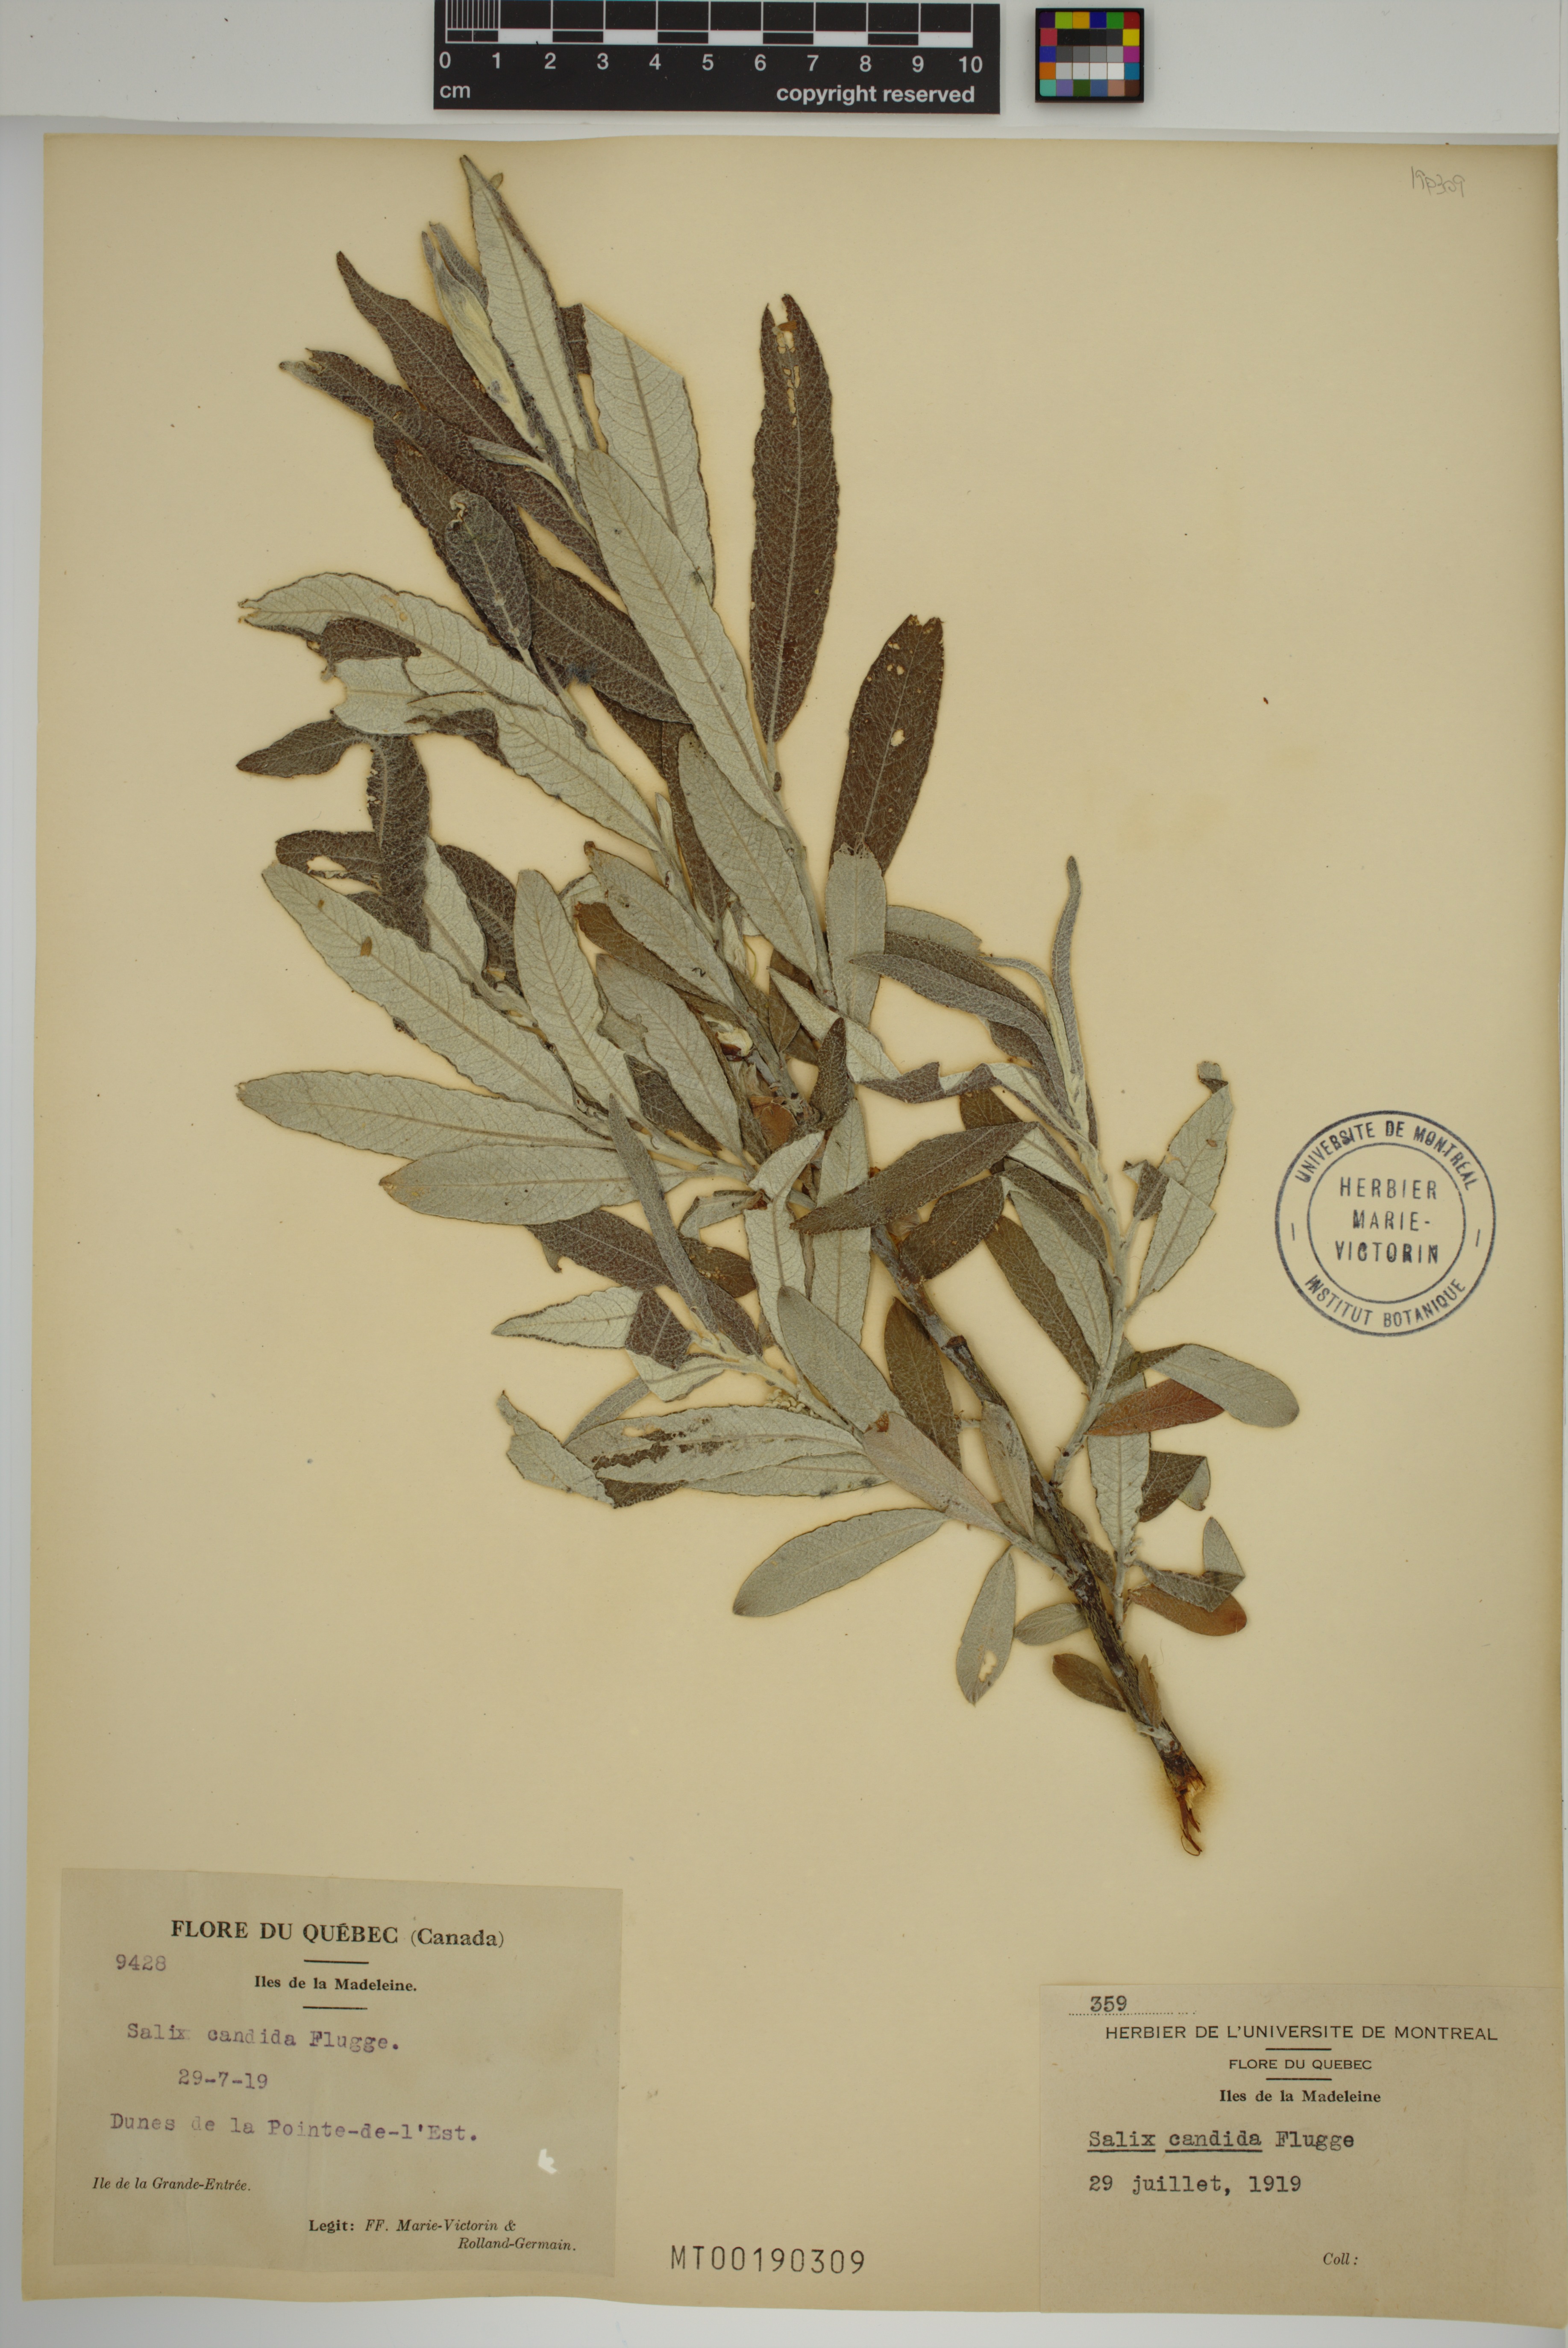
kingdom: Plantae
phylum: Tracheophyta
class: Magnoliopsida
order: Malpighiales
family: Salicaceae
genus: Salix
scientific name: Salix candida
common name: Hoary willow
